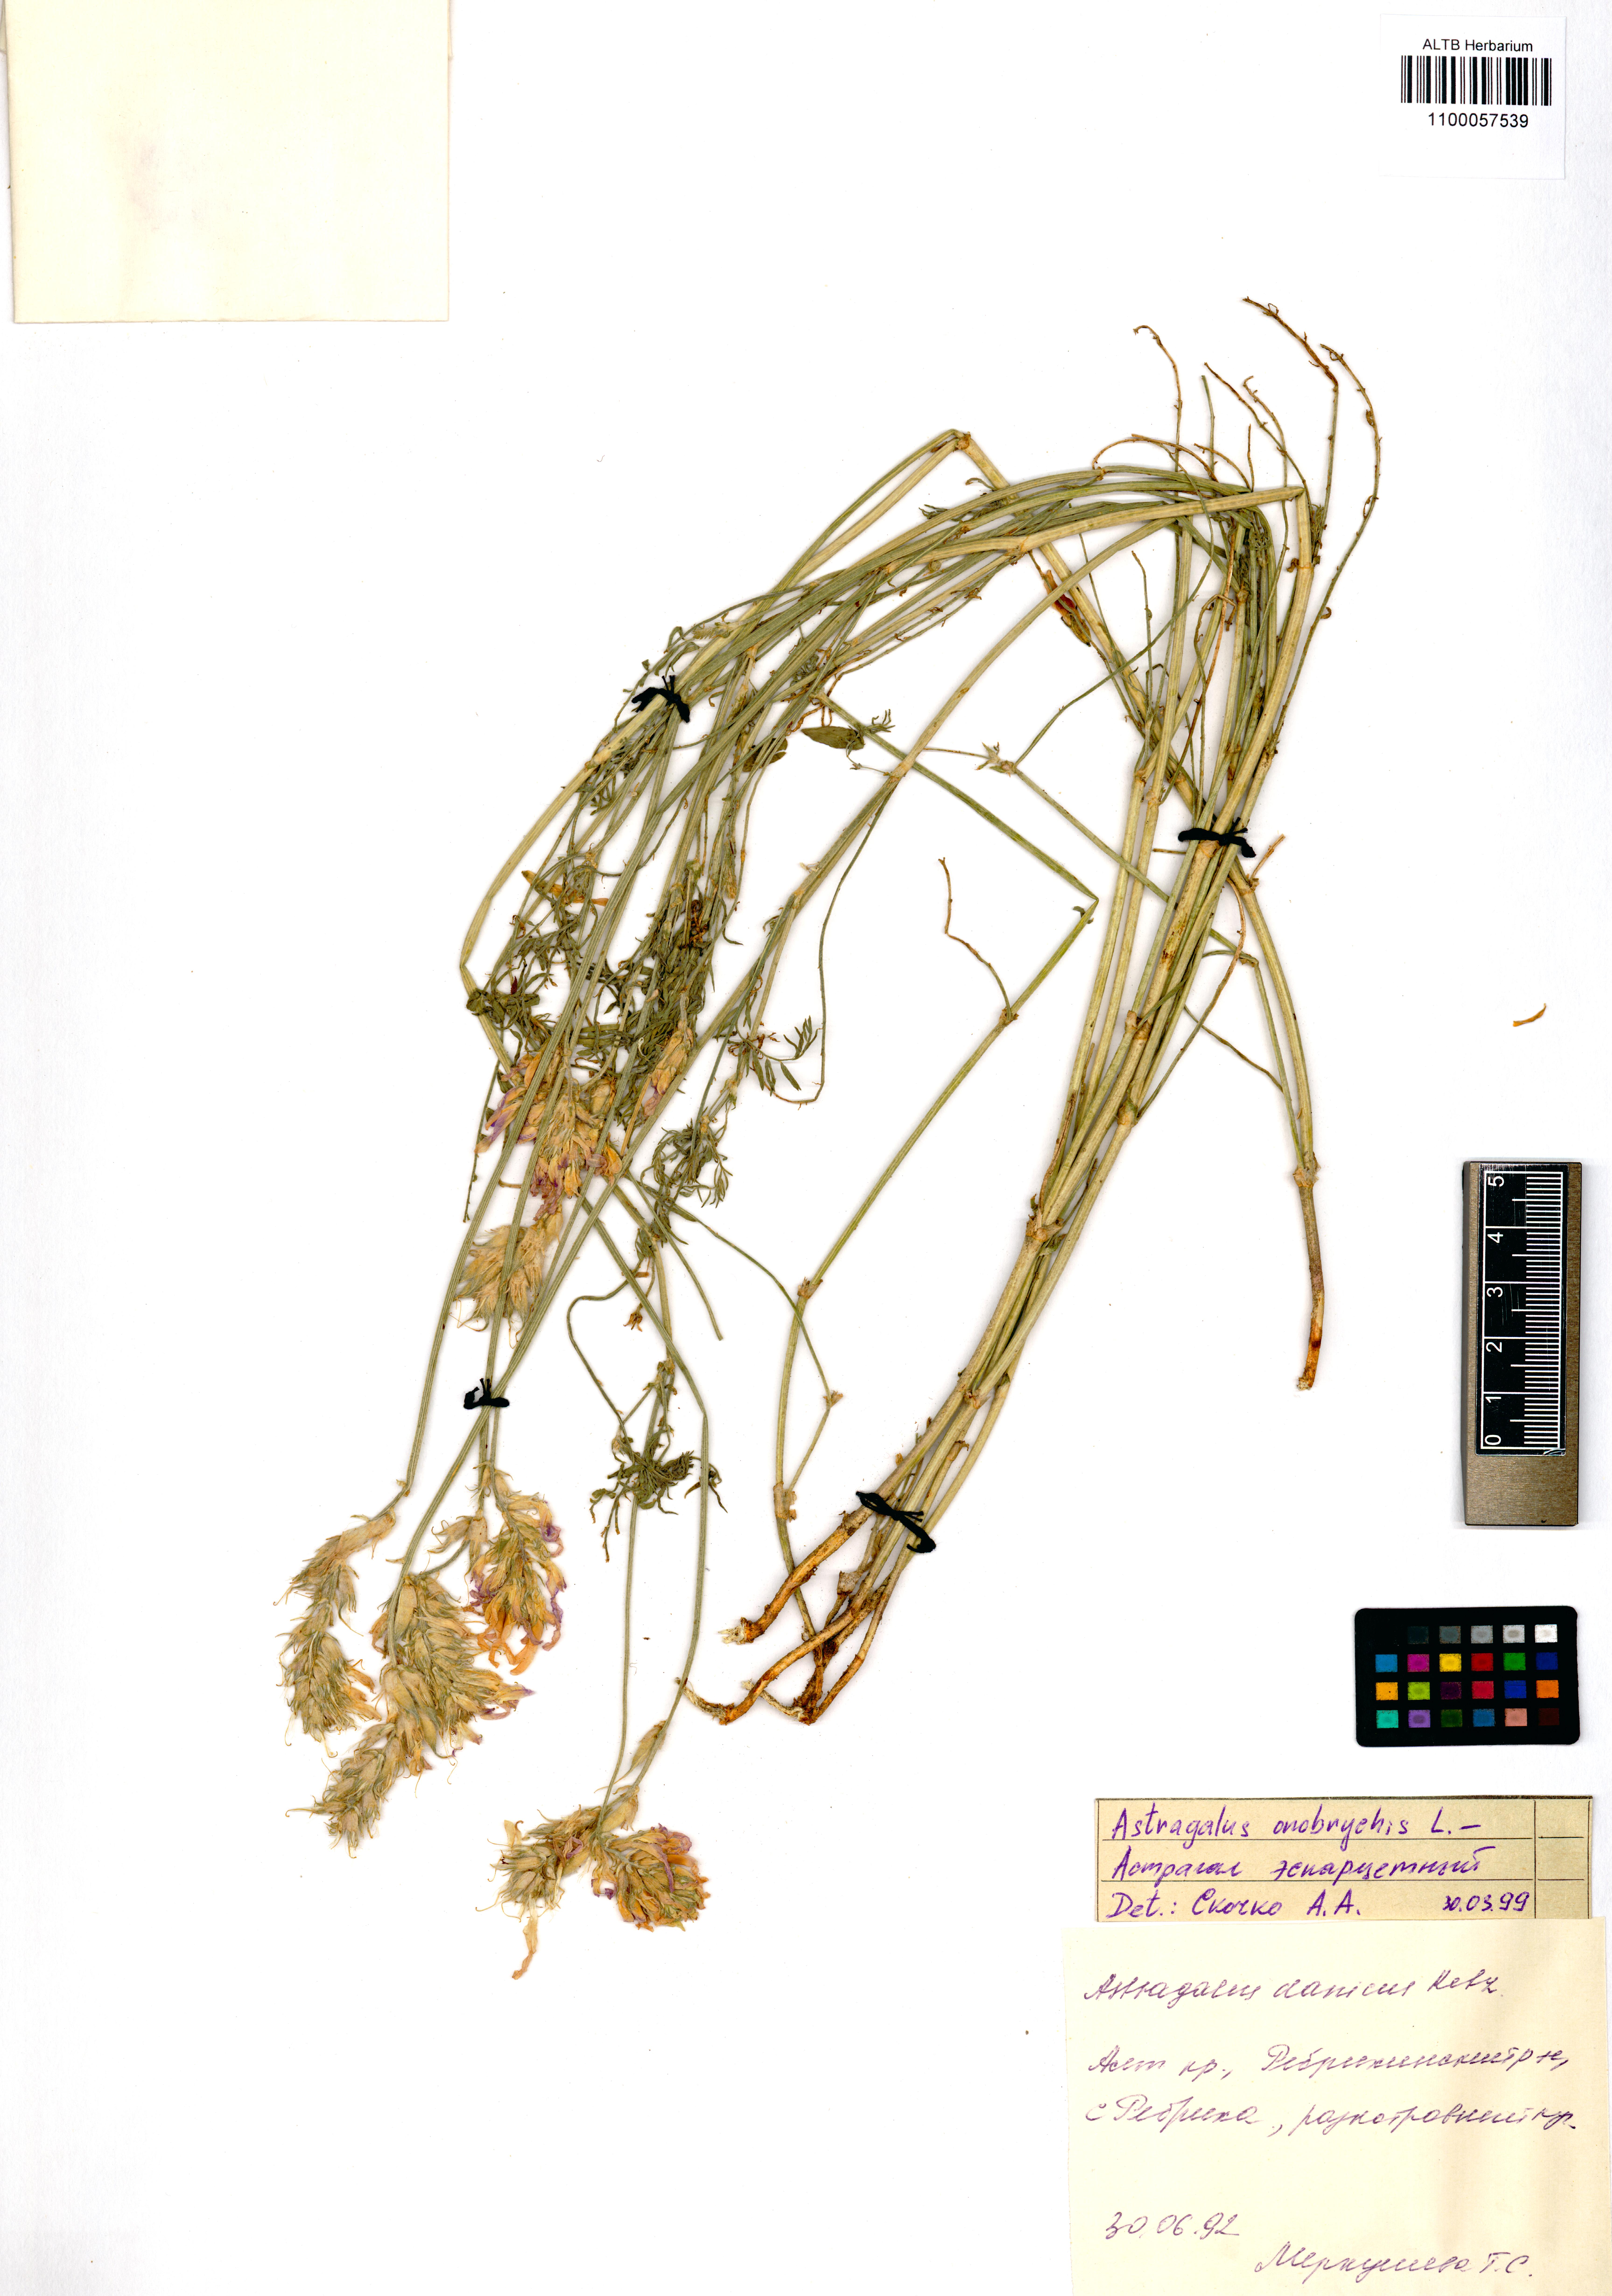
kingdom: Plantae
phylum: Tracheophyta
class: Magnoliopsida
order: Fabales
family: Fabaceae
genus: Astragalus
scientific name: Astragalus onobrychis
